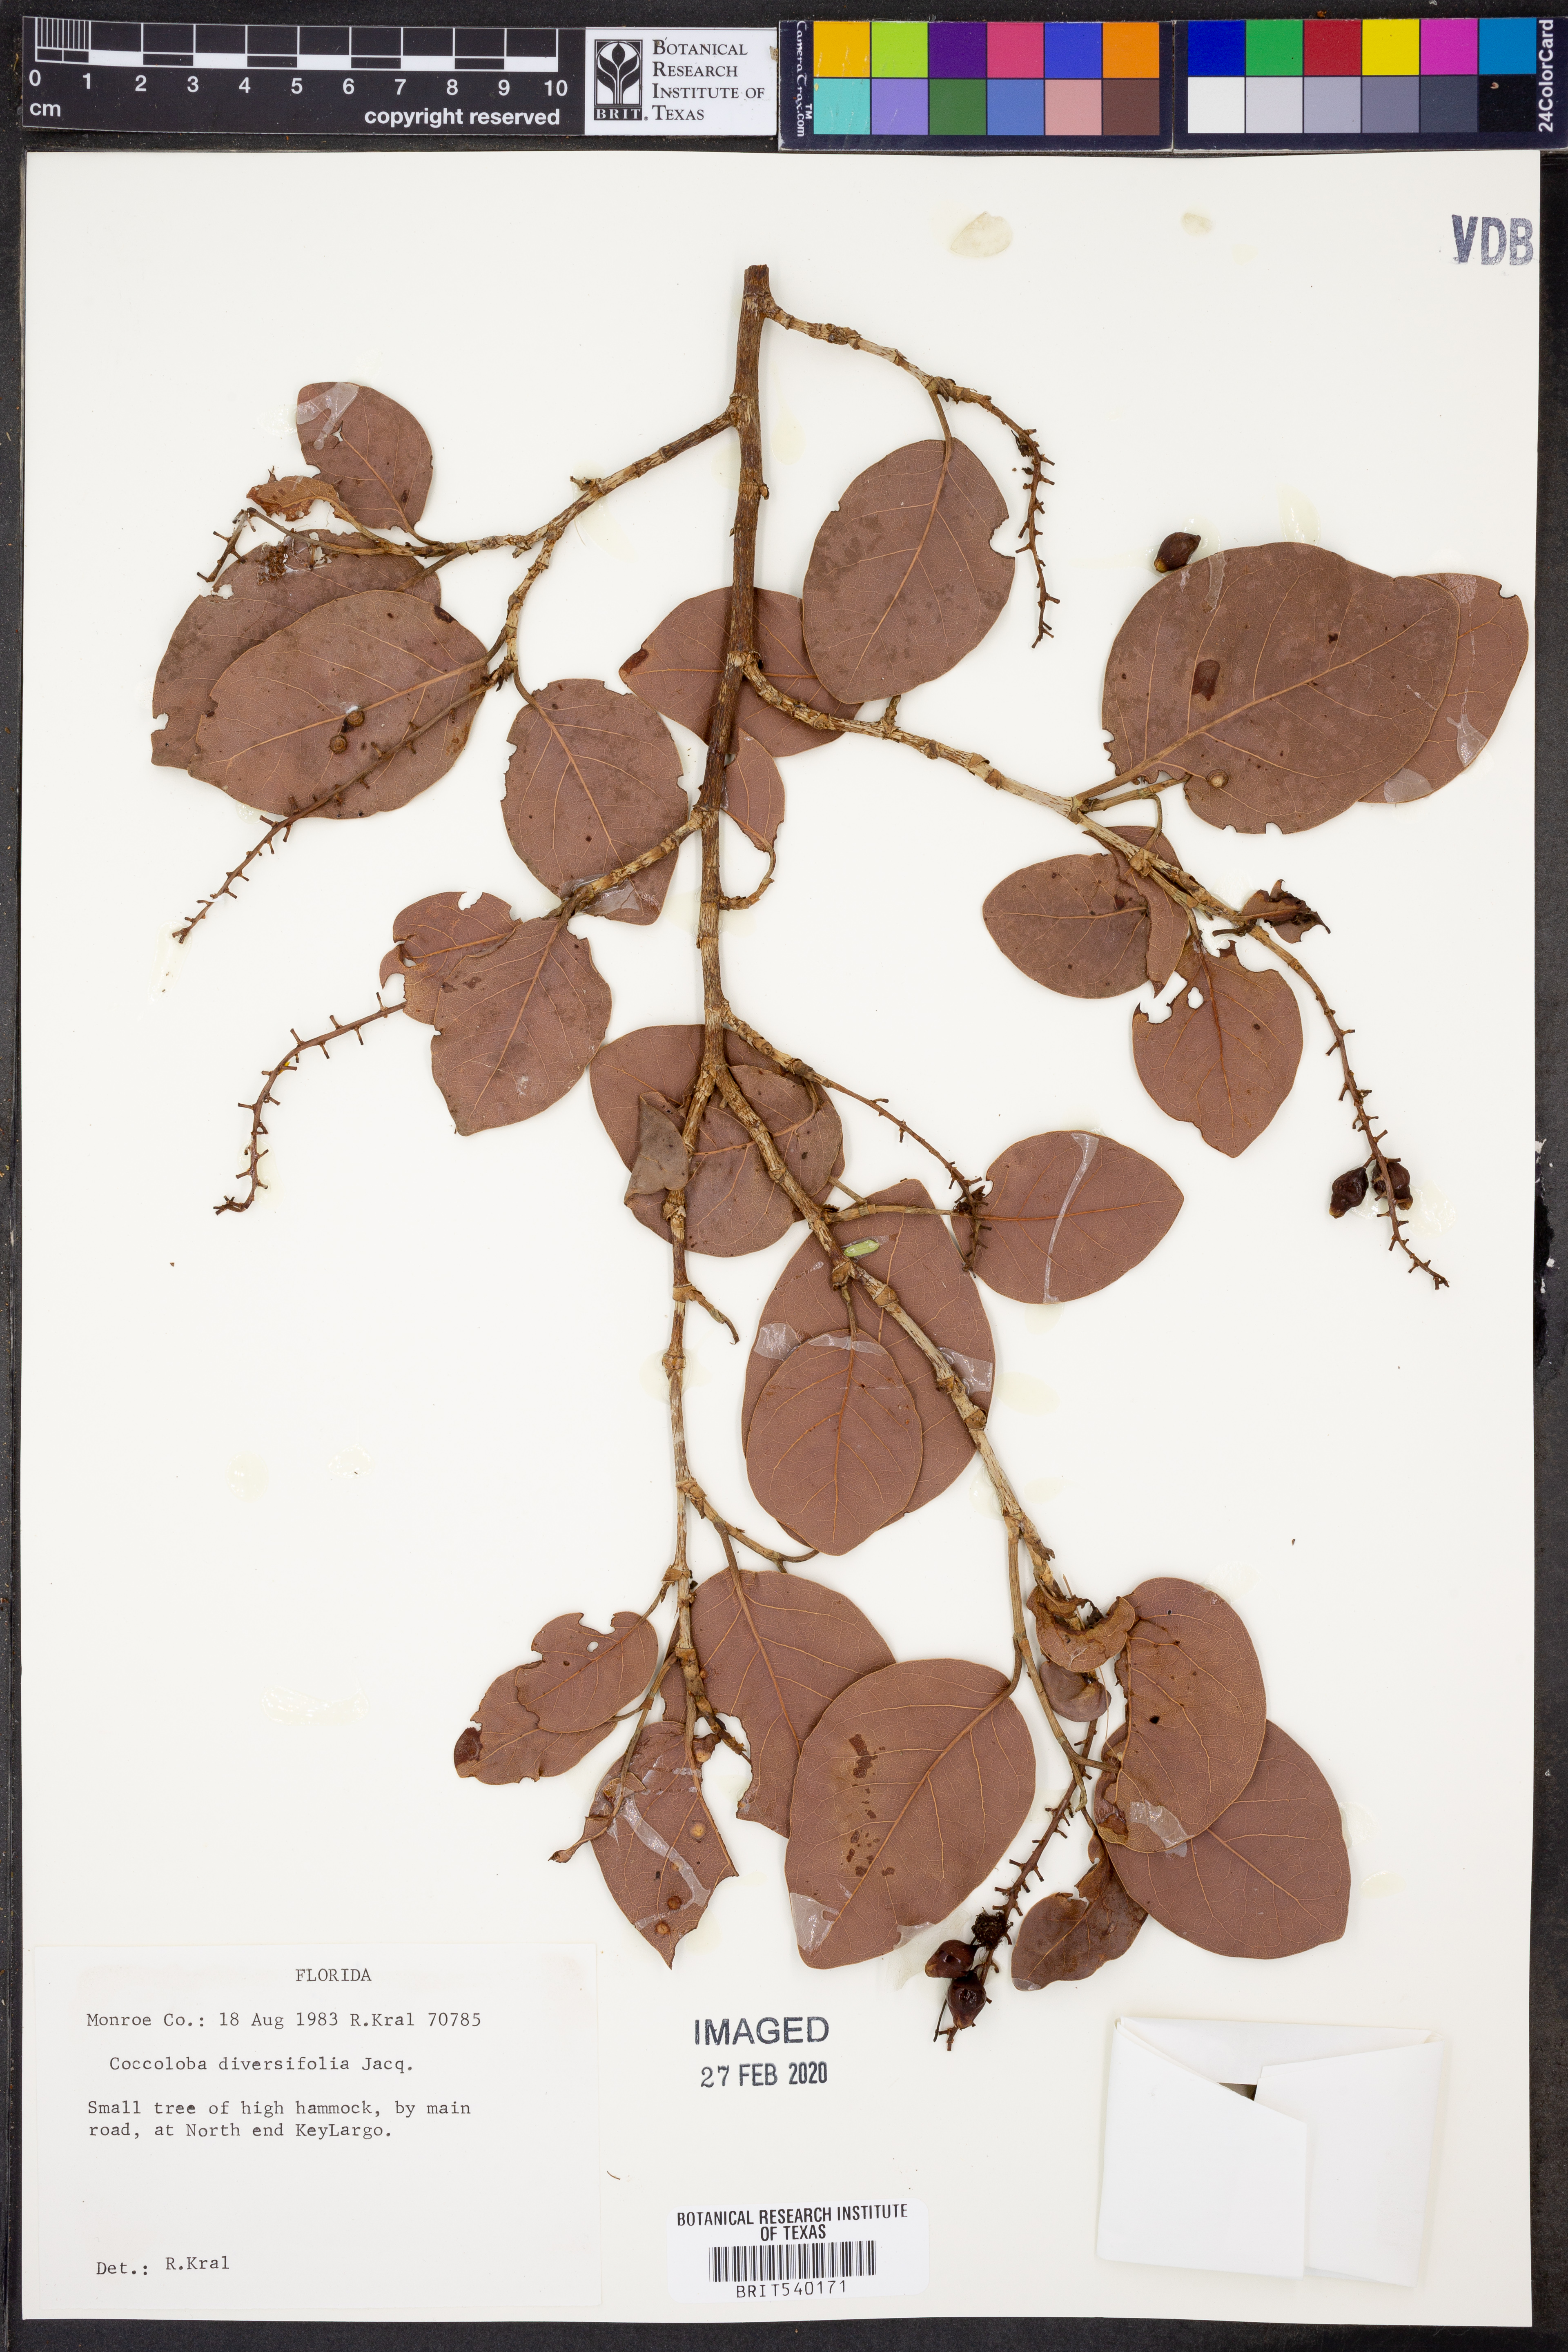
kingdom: Plantae
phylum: Tracheophyta
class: Magnoliopsida
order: Caryophyllales
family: Polygonaceae
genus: Coccoloba
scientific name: Coccoloba diversifolia
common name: Pigeon-plum
